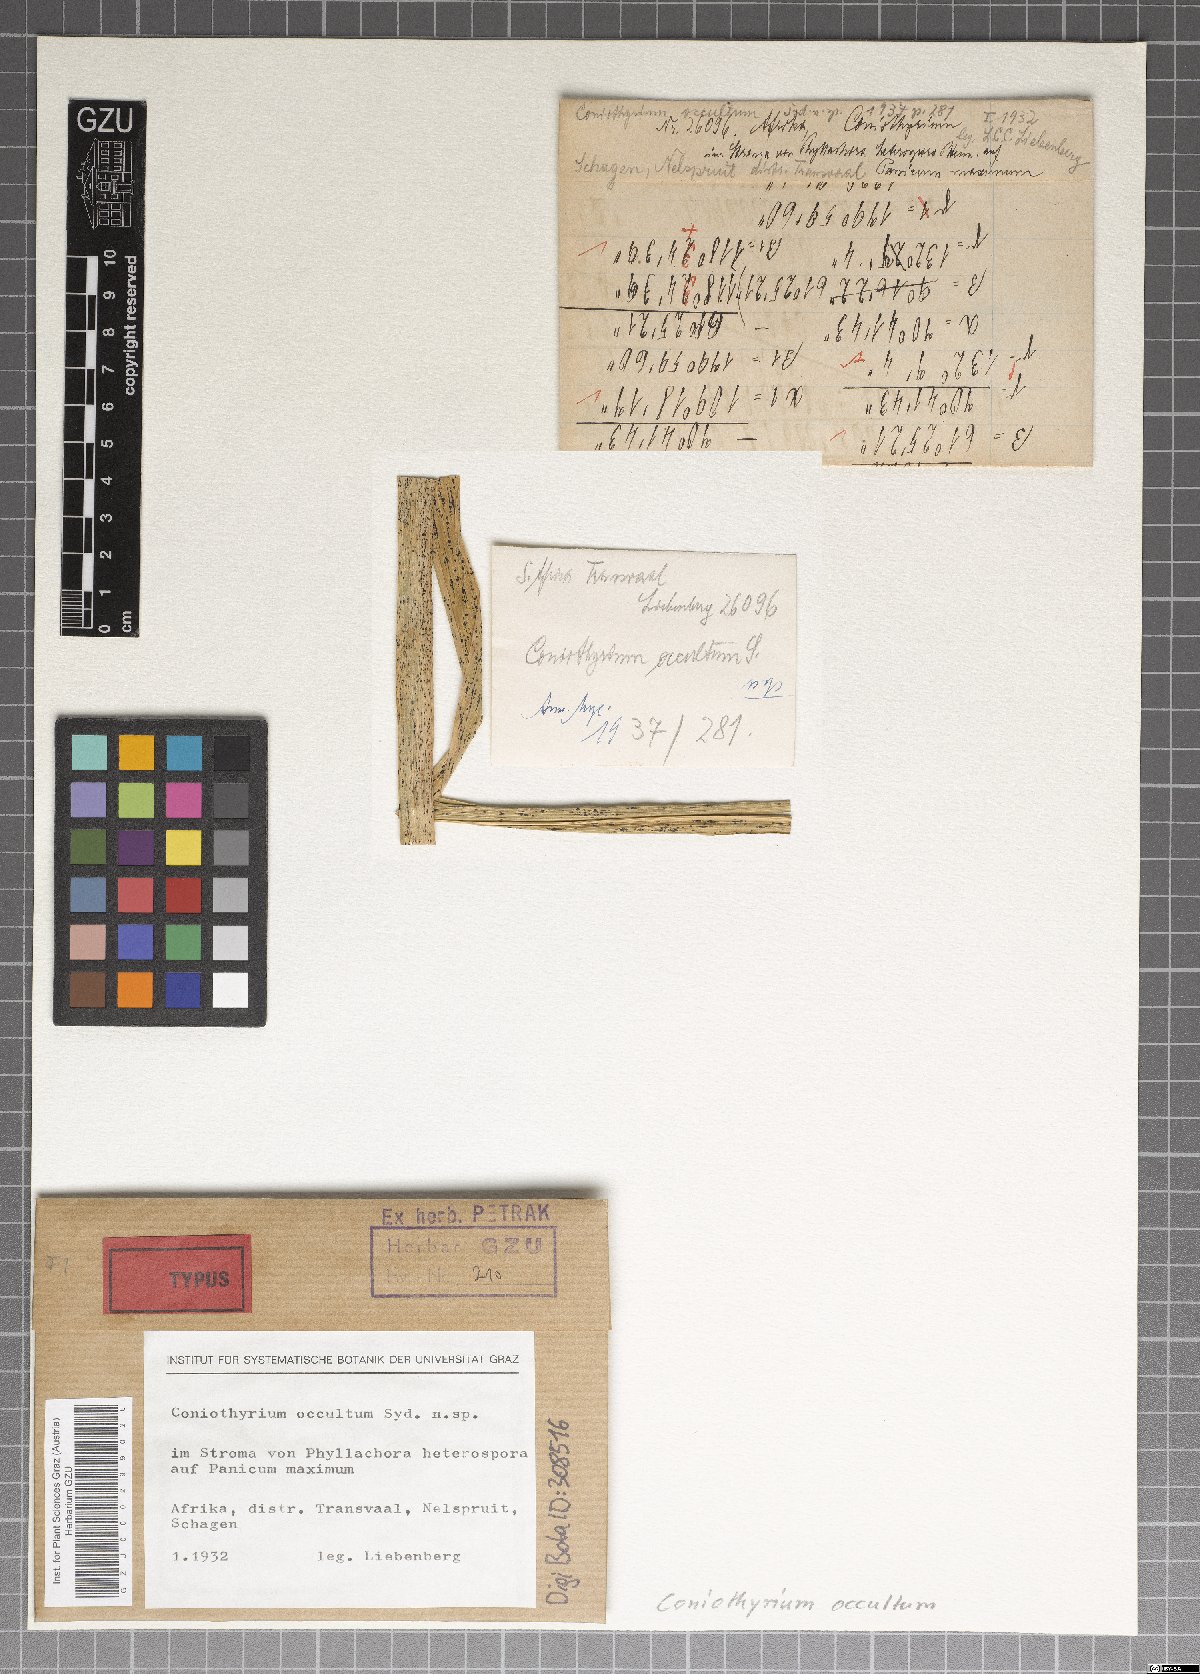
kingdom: Fungi
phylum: Ascomycota
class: Dothideomycetes
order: Pleosporales
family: Coniothyriaceae
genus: Coniothyrium
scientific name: Coniothyrium occultum
